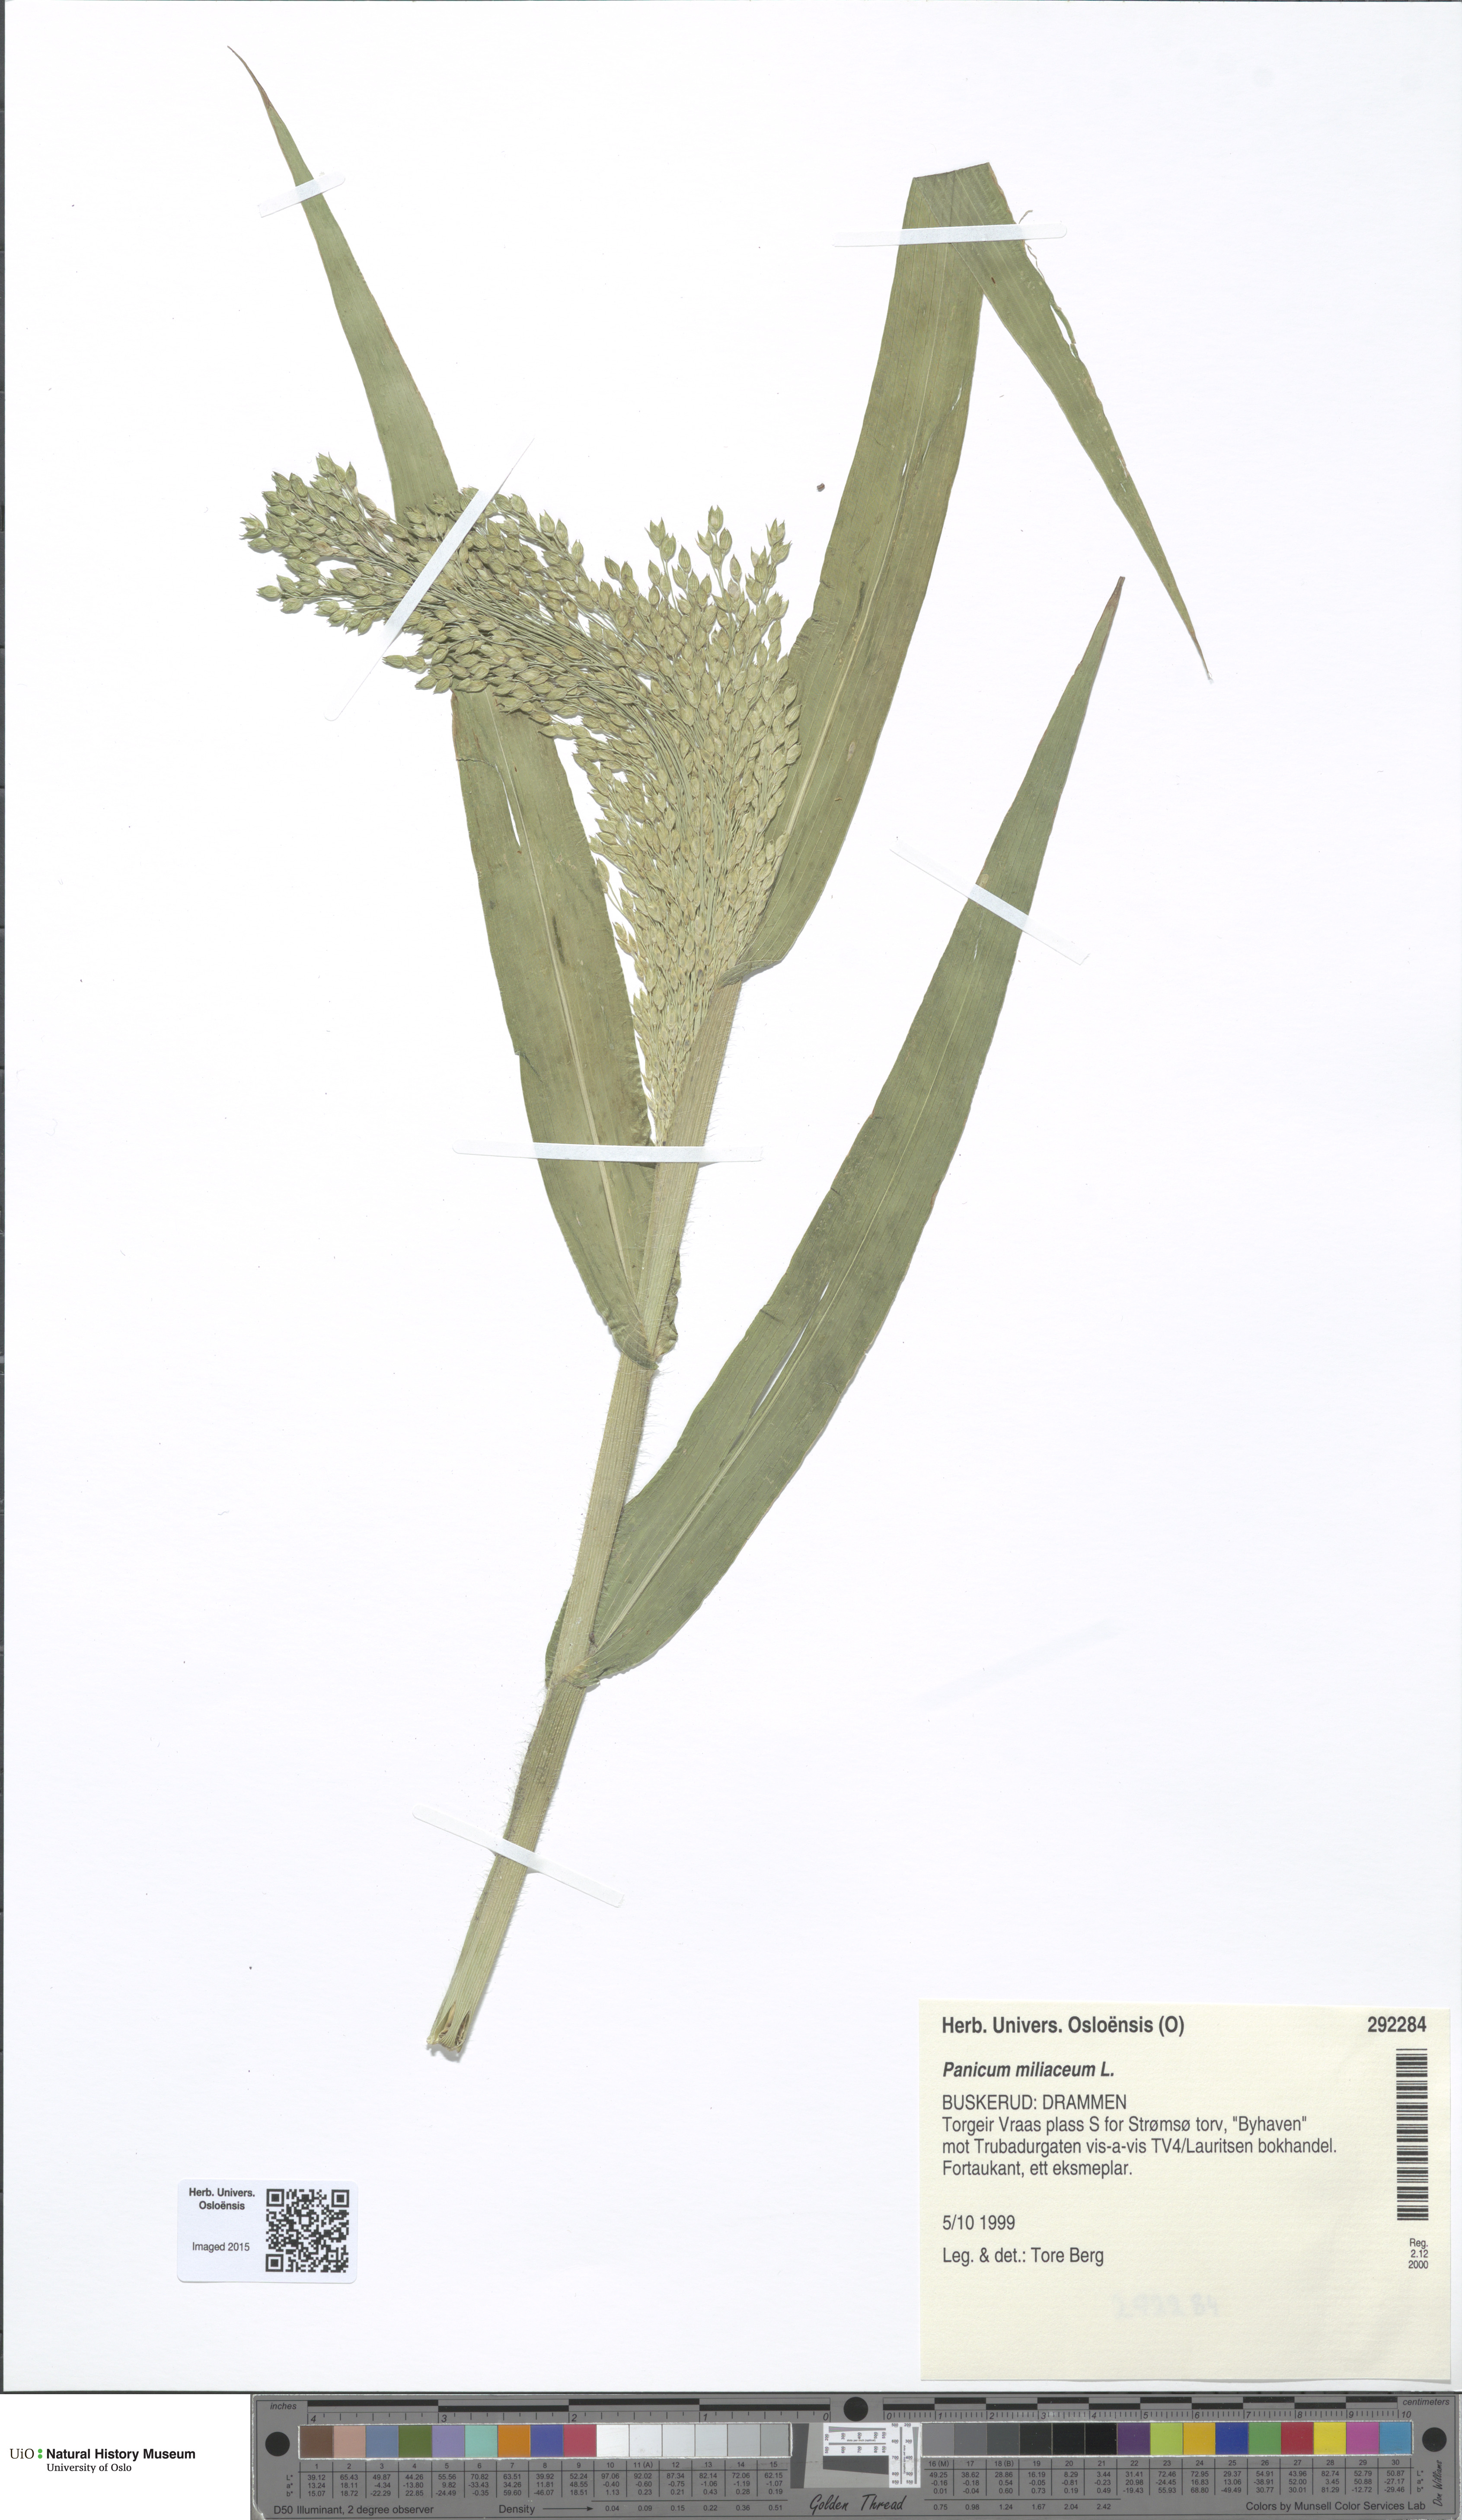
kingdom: Plantae
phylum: Tracheophyta
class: Liliopsida
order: Poales
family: Poaceae
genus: Panicum
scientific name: Panicum miliaceum
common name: Common millet
